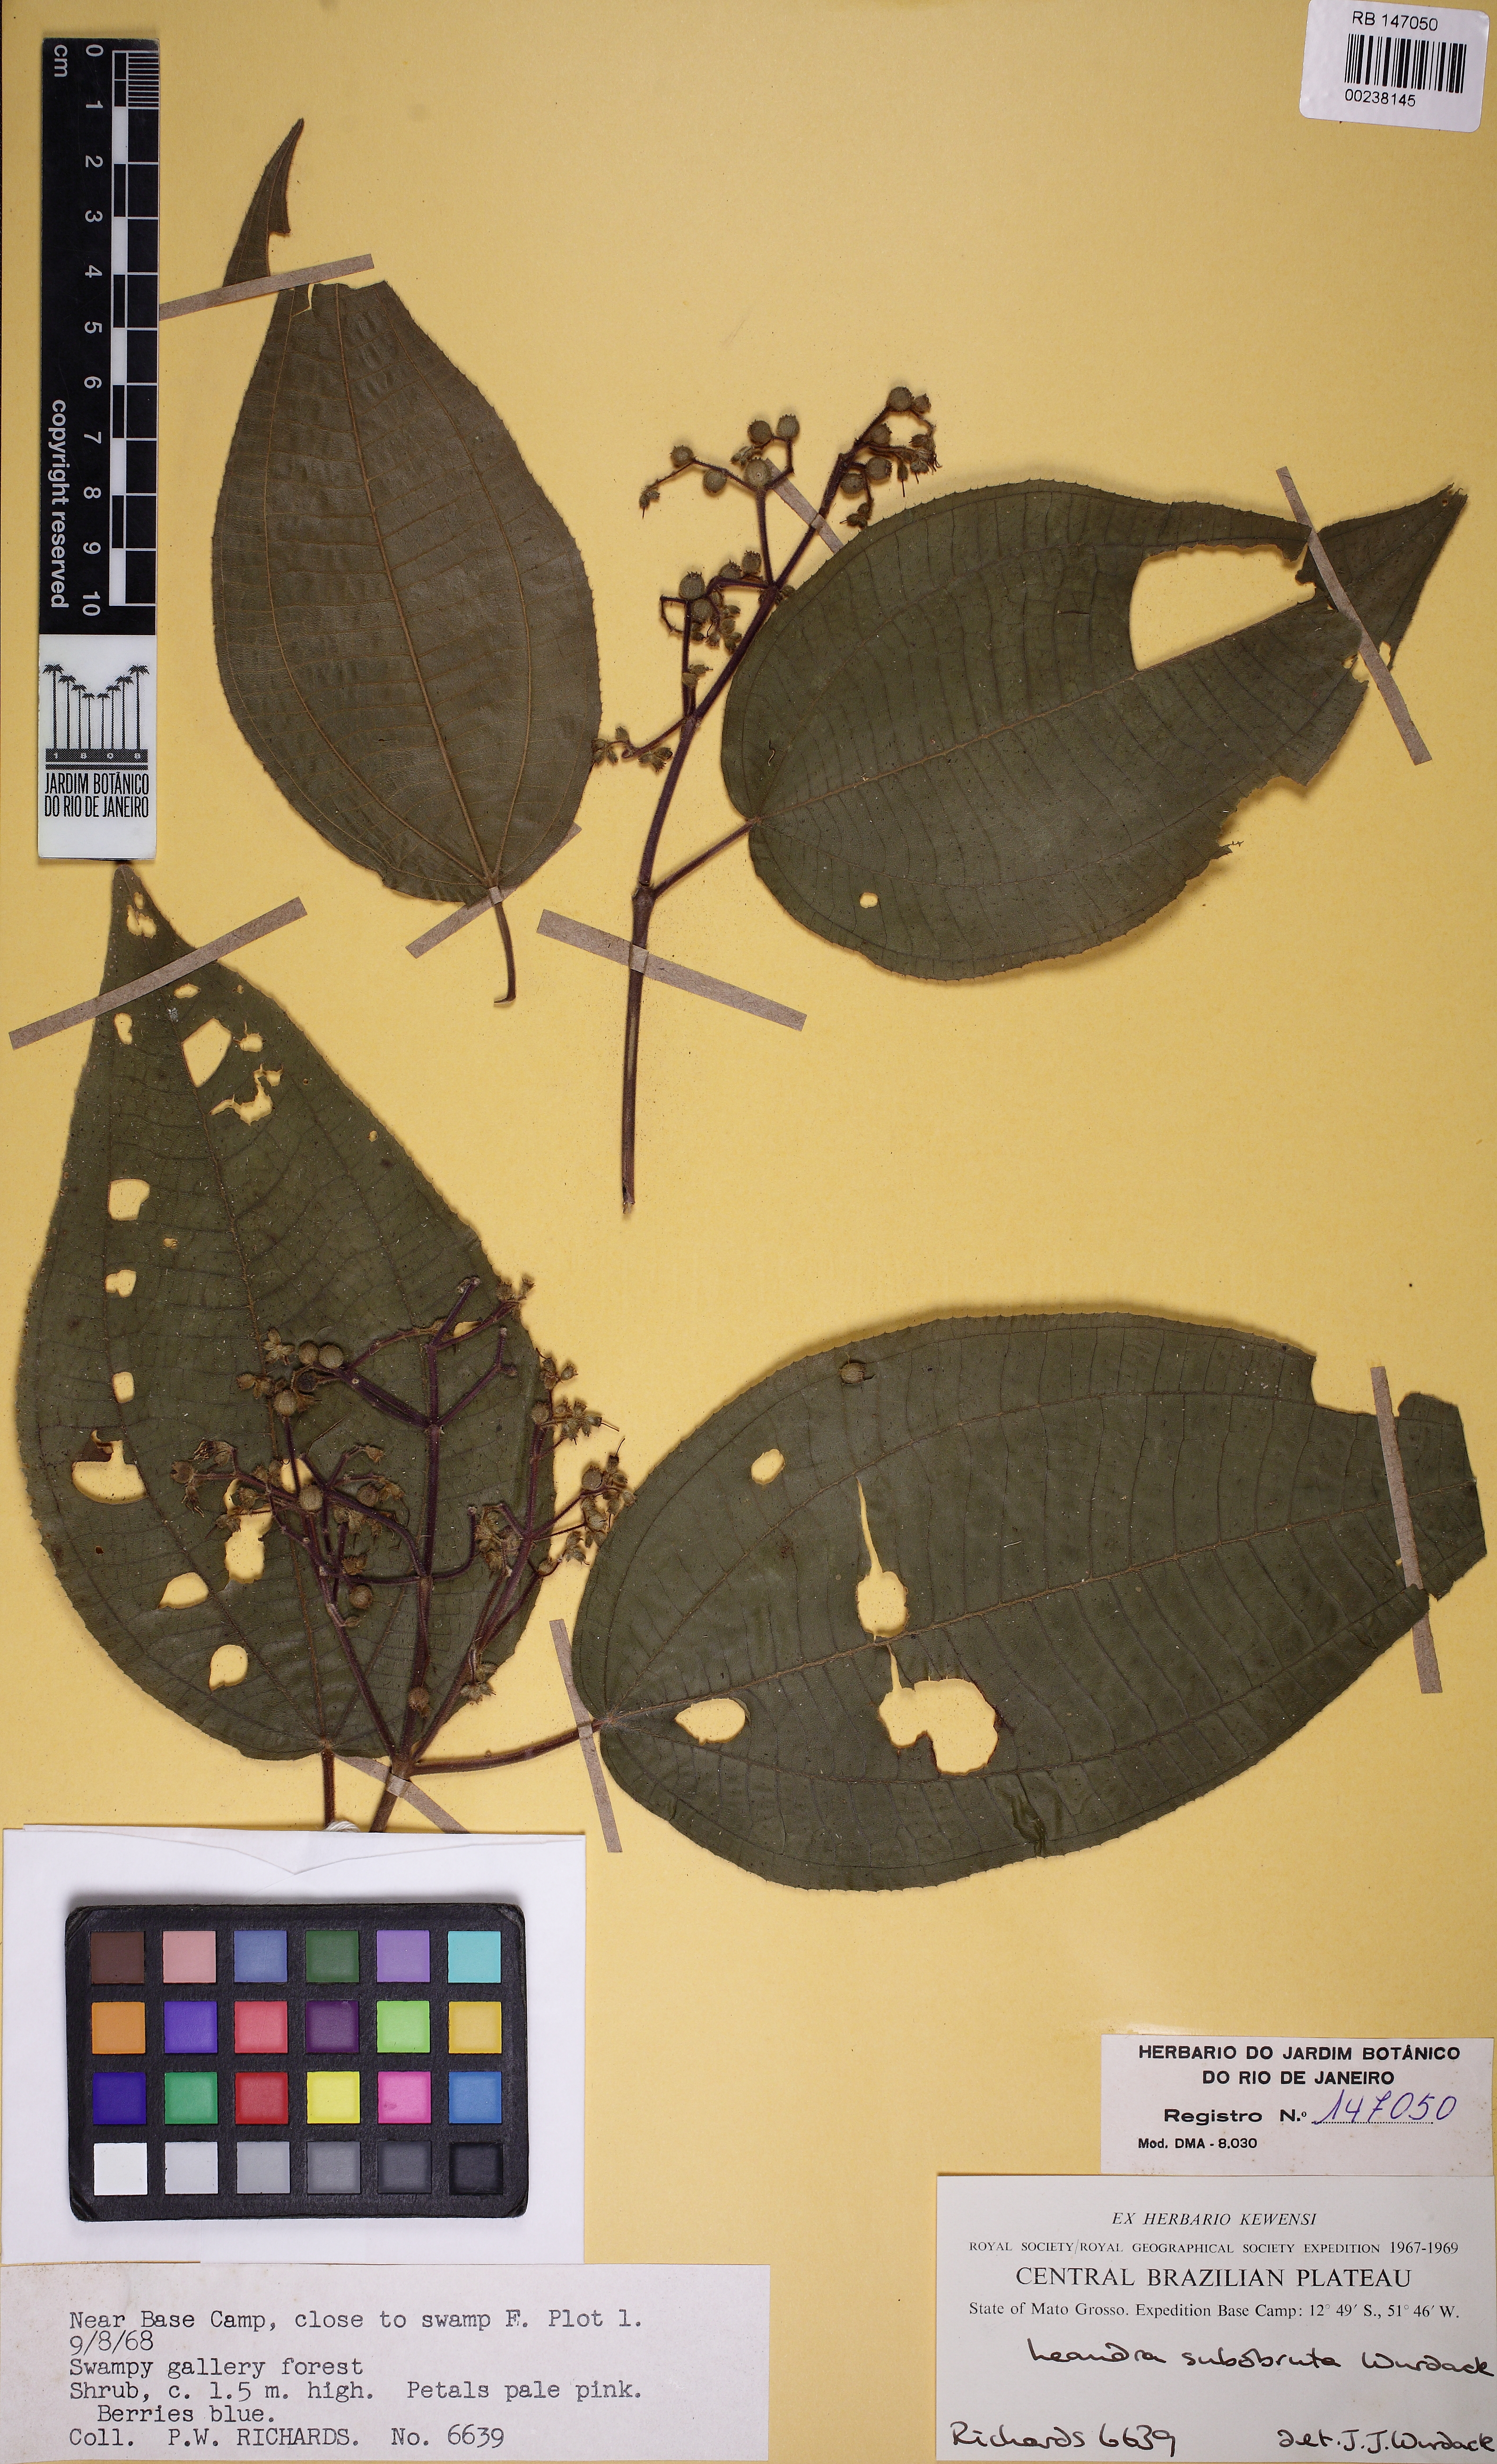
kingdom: Plantae
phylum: Tracheophyta
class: Magnoliopsida
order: Myrtales
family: Melastomataceae
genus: Miconia
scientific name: Miconia subobruta
